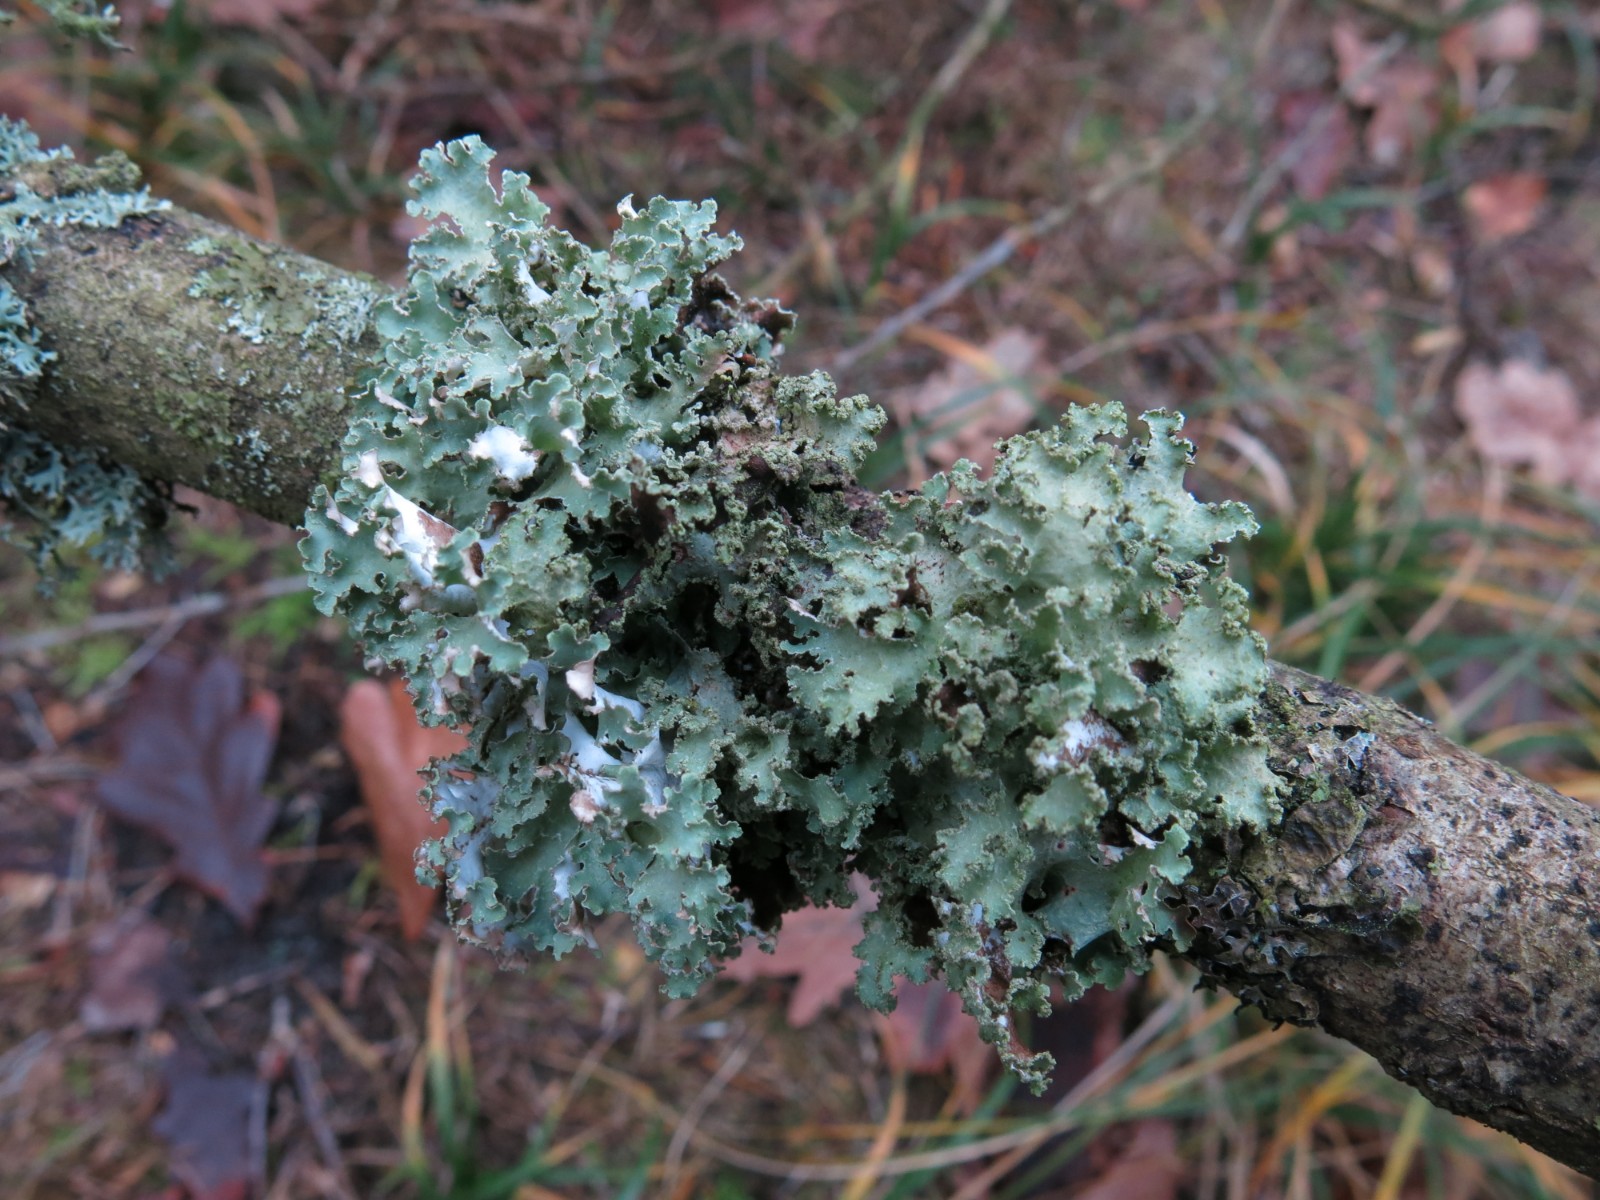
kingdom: Fungi
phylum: Ascomycota
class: Lecanoromycetes
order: Lecanorales
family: Parmeliaceae
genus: Platismatia
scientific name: Platismatia glauca
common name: blågrå papirlav
